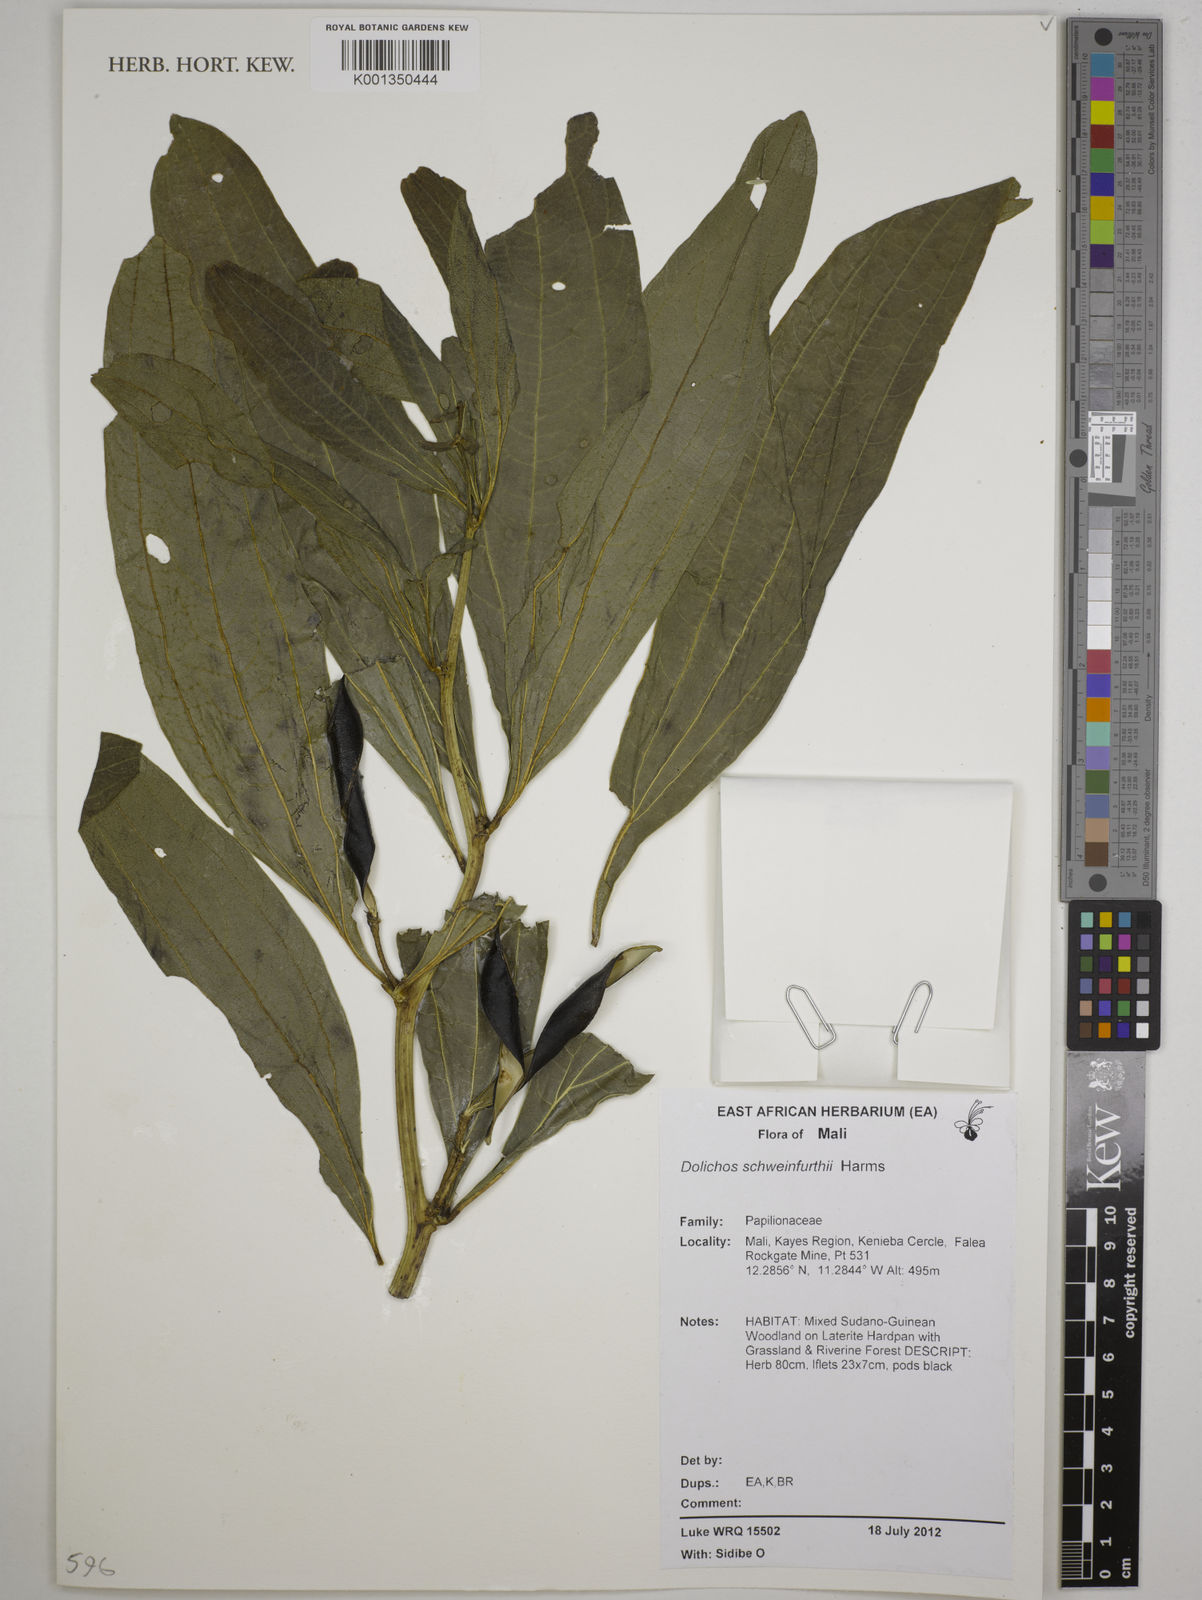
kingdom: Plantae
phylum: Tracheophyta
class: Magnoliopsida
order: Fabales
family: Fabaceae
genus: Dolichos
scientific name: Dolichos schweinfurthii
